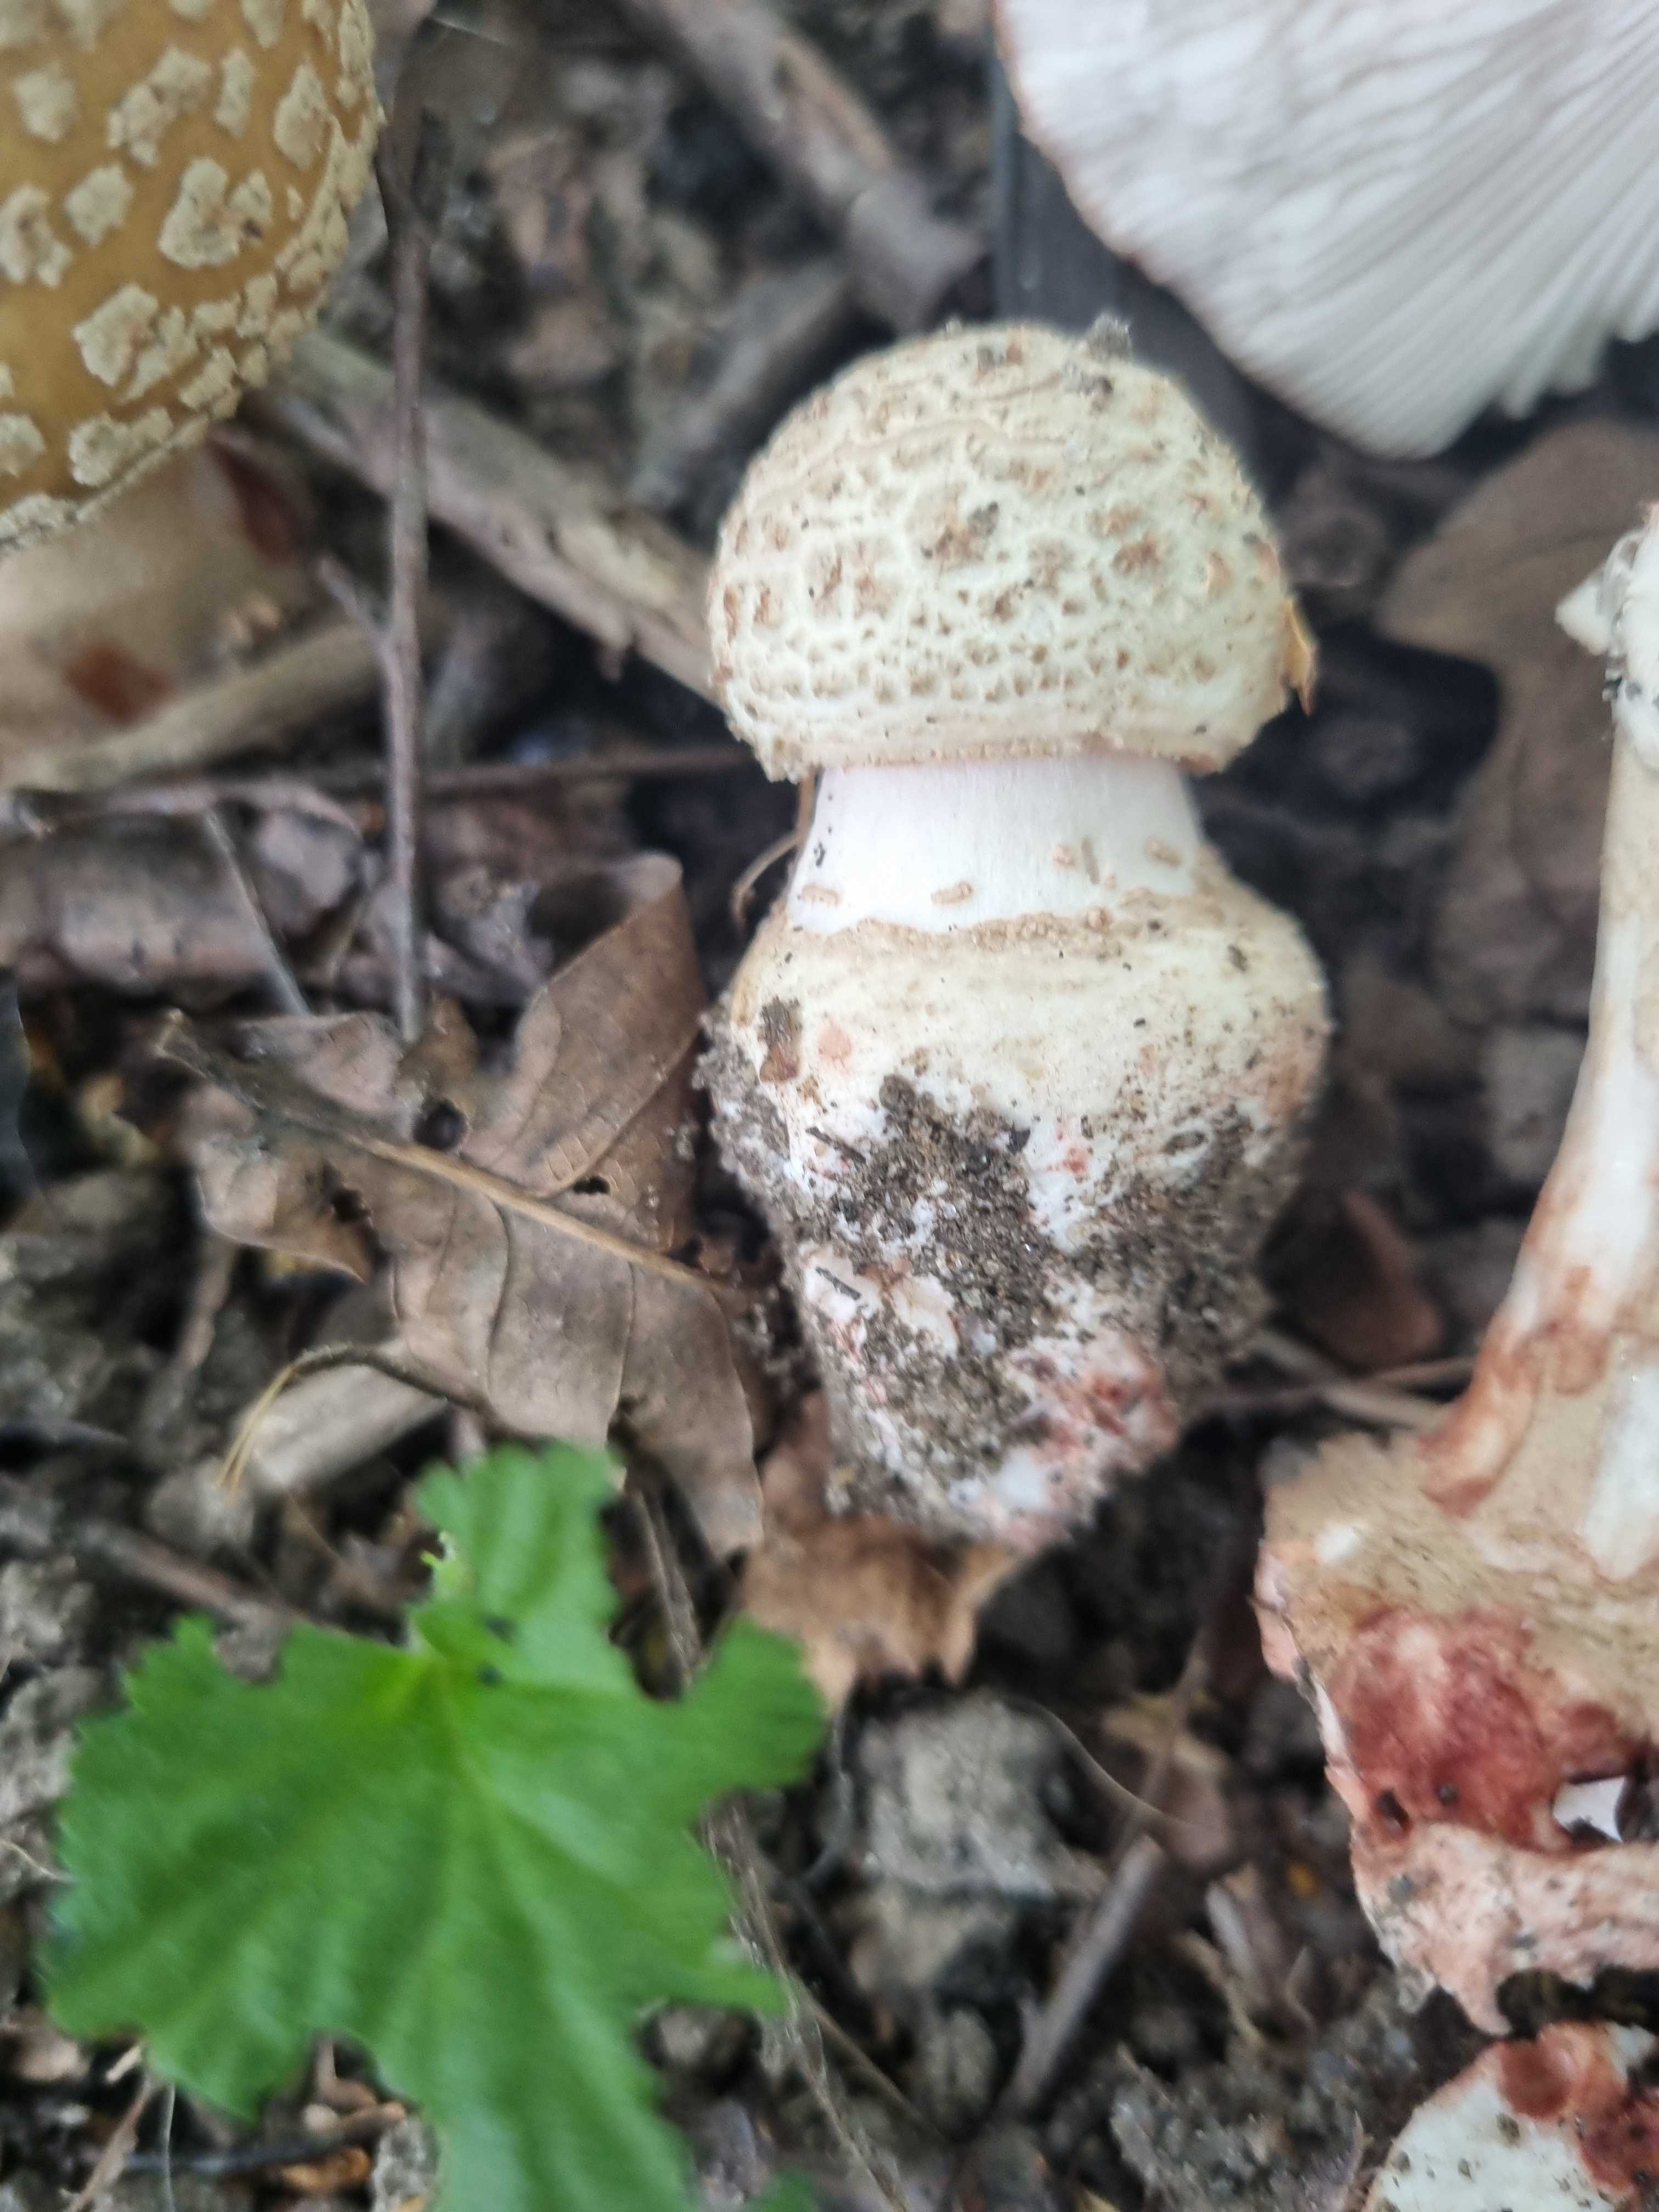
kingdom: Fungi
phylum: Basidiomycota
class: Agaricomycetes
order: Agaricales
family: Amanitaceae
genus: Amanita
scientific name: Amanita rubescens
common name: rødmende fluesvamp
